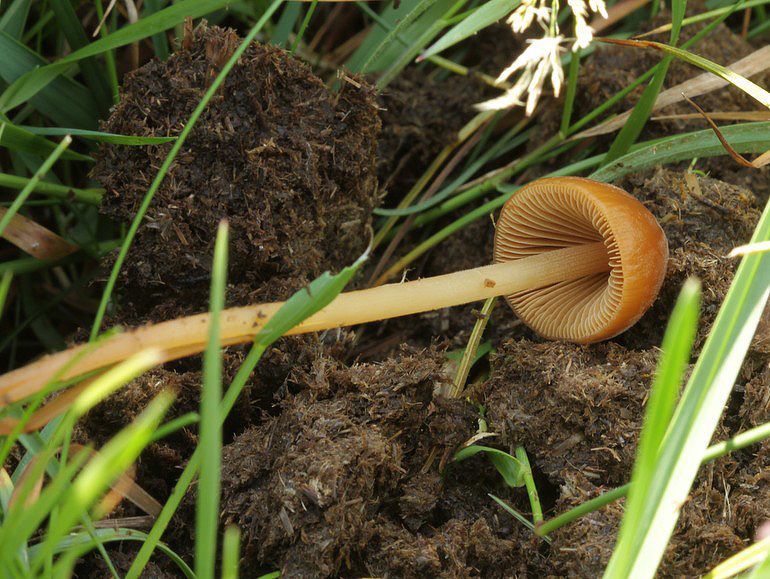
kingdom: Fungi
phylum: Basidiomycota
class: Agaricomycetes
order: Agaricales
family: Bolbitiaceae
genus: Conocybe
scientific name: Conocybe pubescens
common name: gødnings-keglehat
